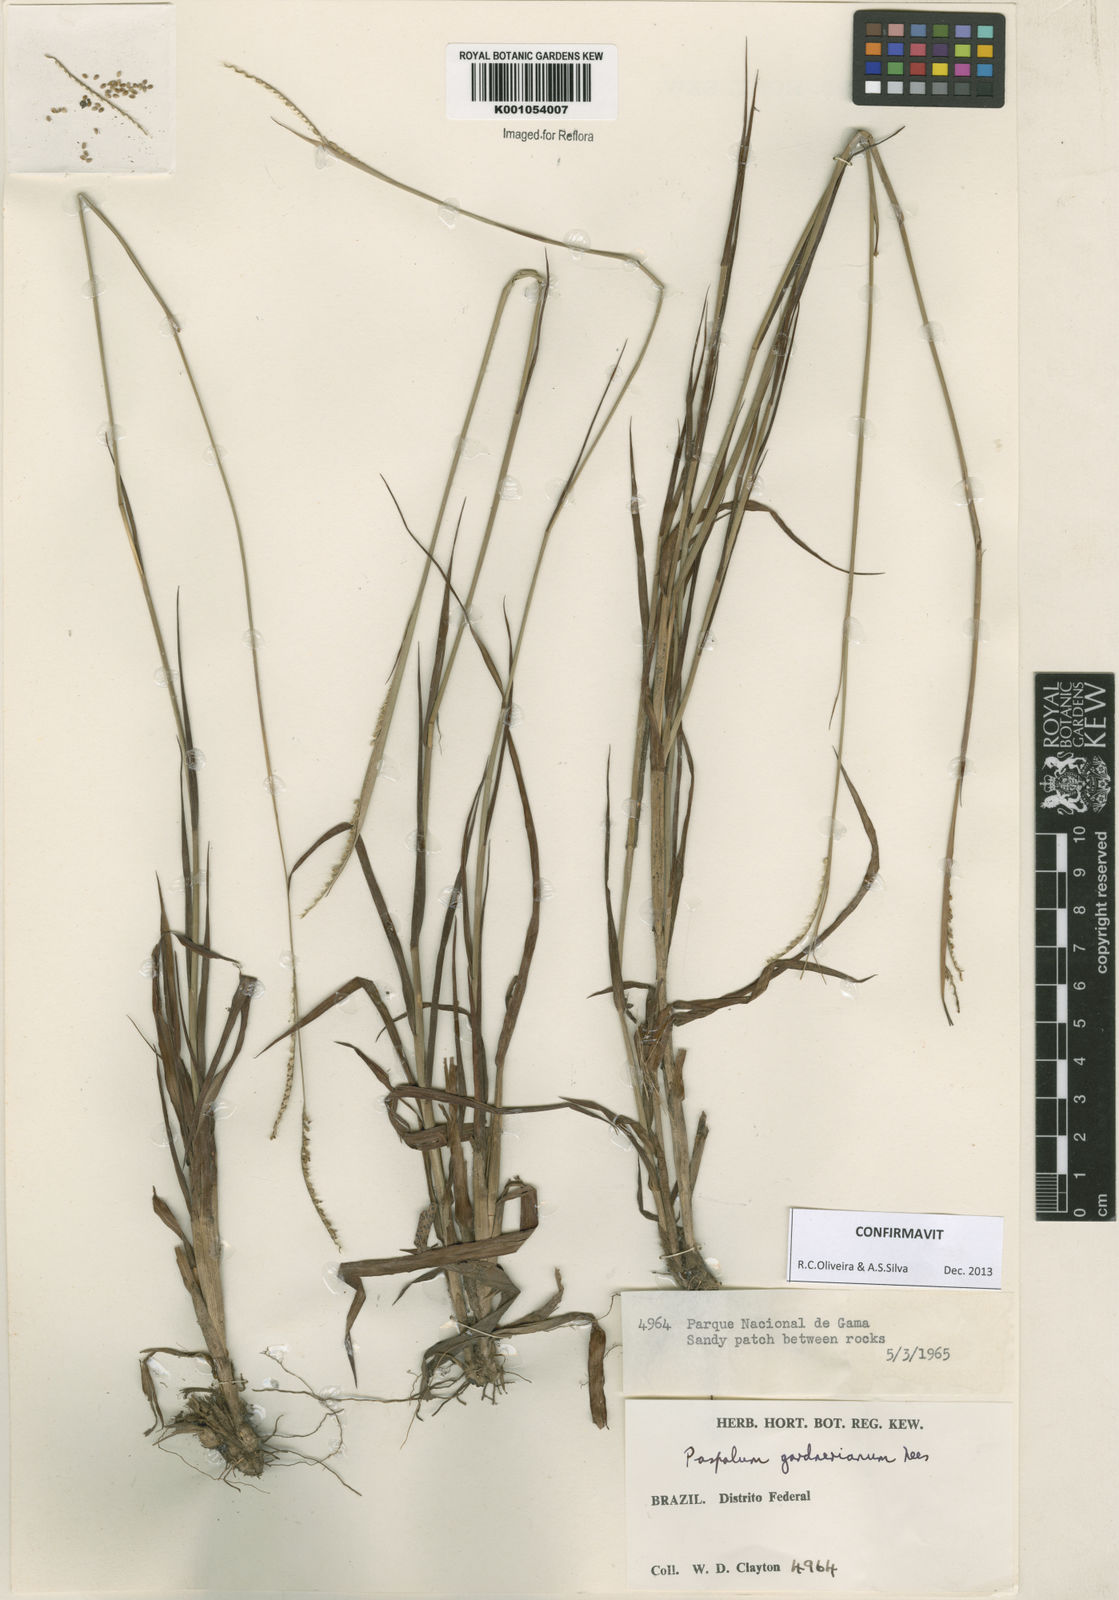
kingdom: Plantae
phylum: Tracheophyta
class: Liliopsida
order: Poales
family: Poaceae
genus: Paspalum
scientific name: Paspalum gardnerianum
